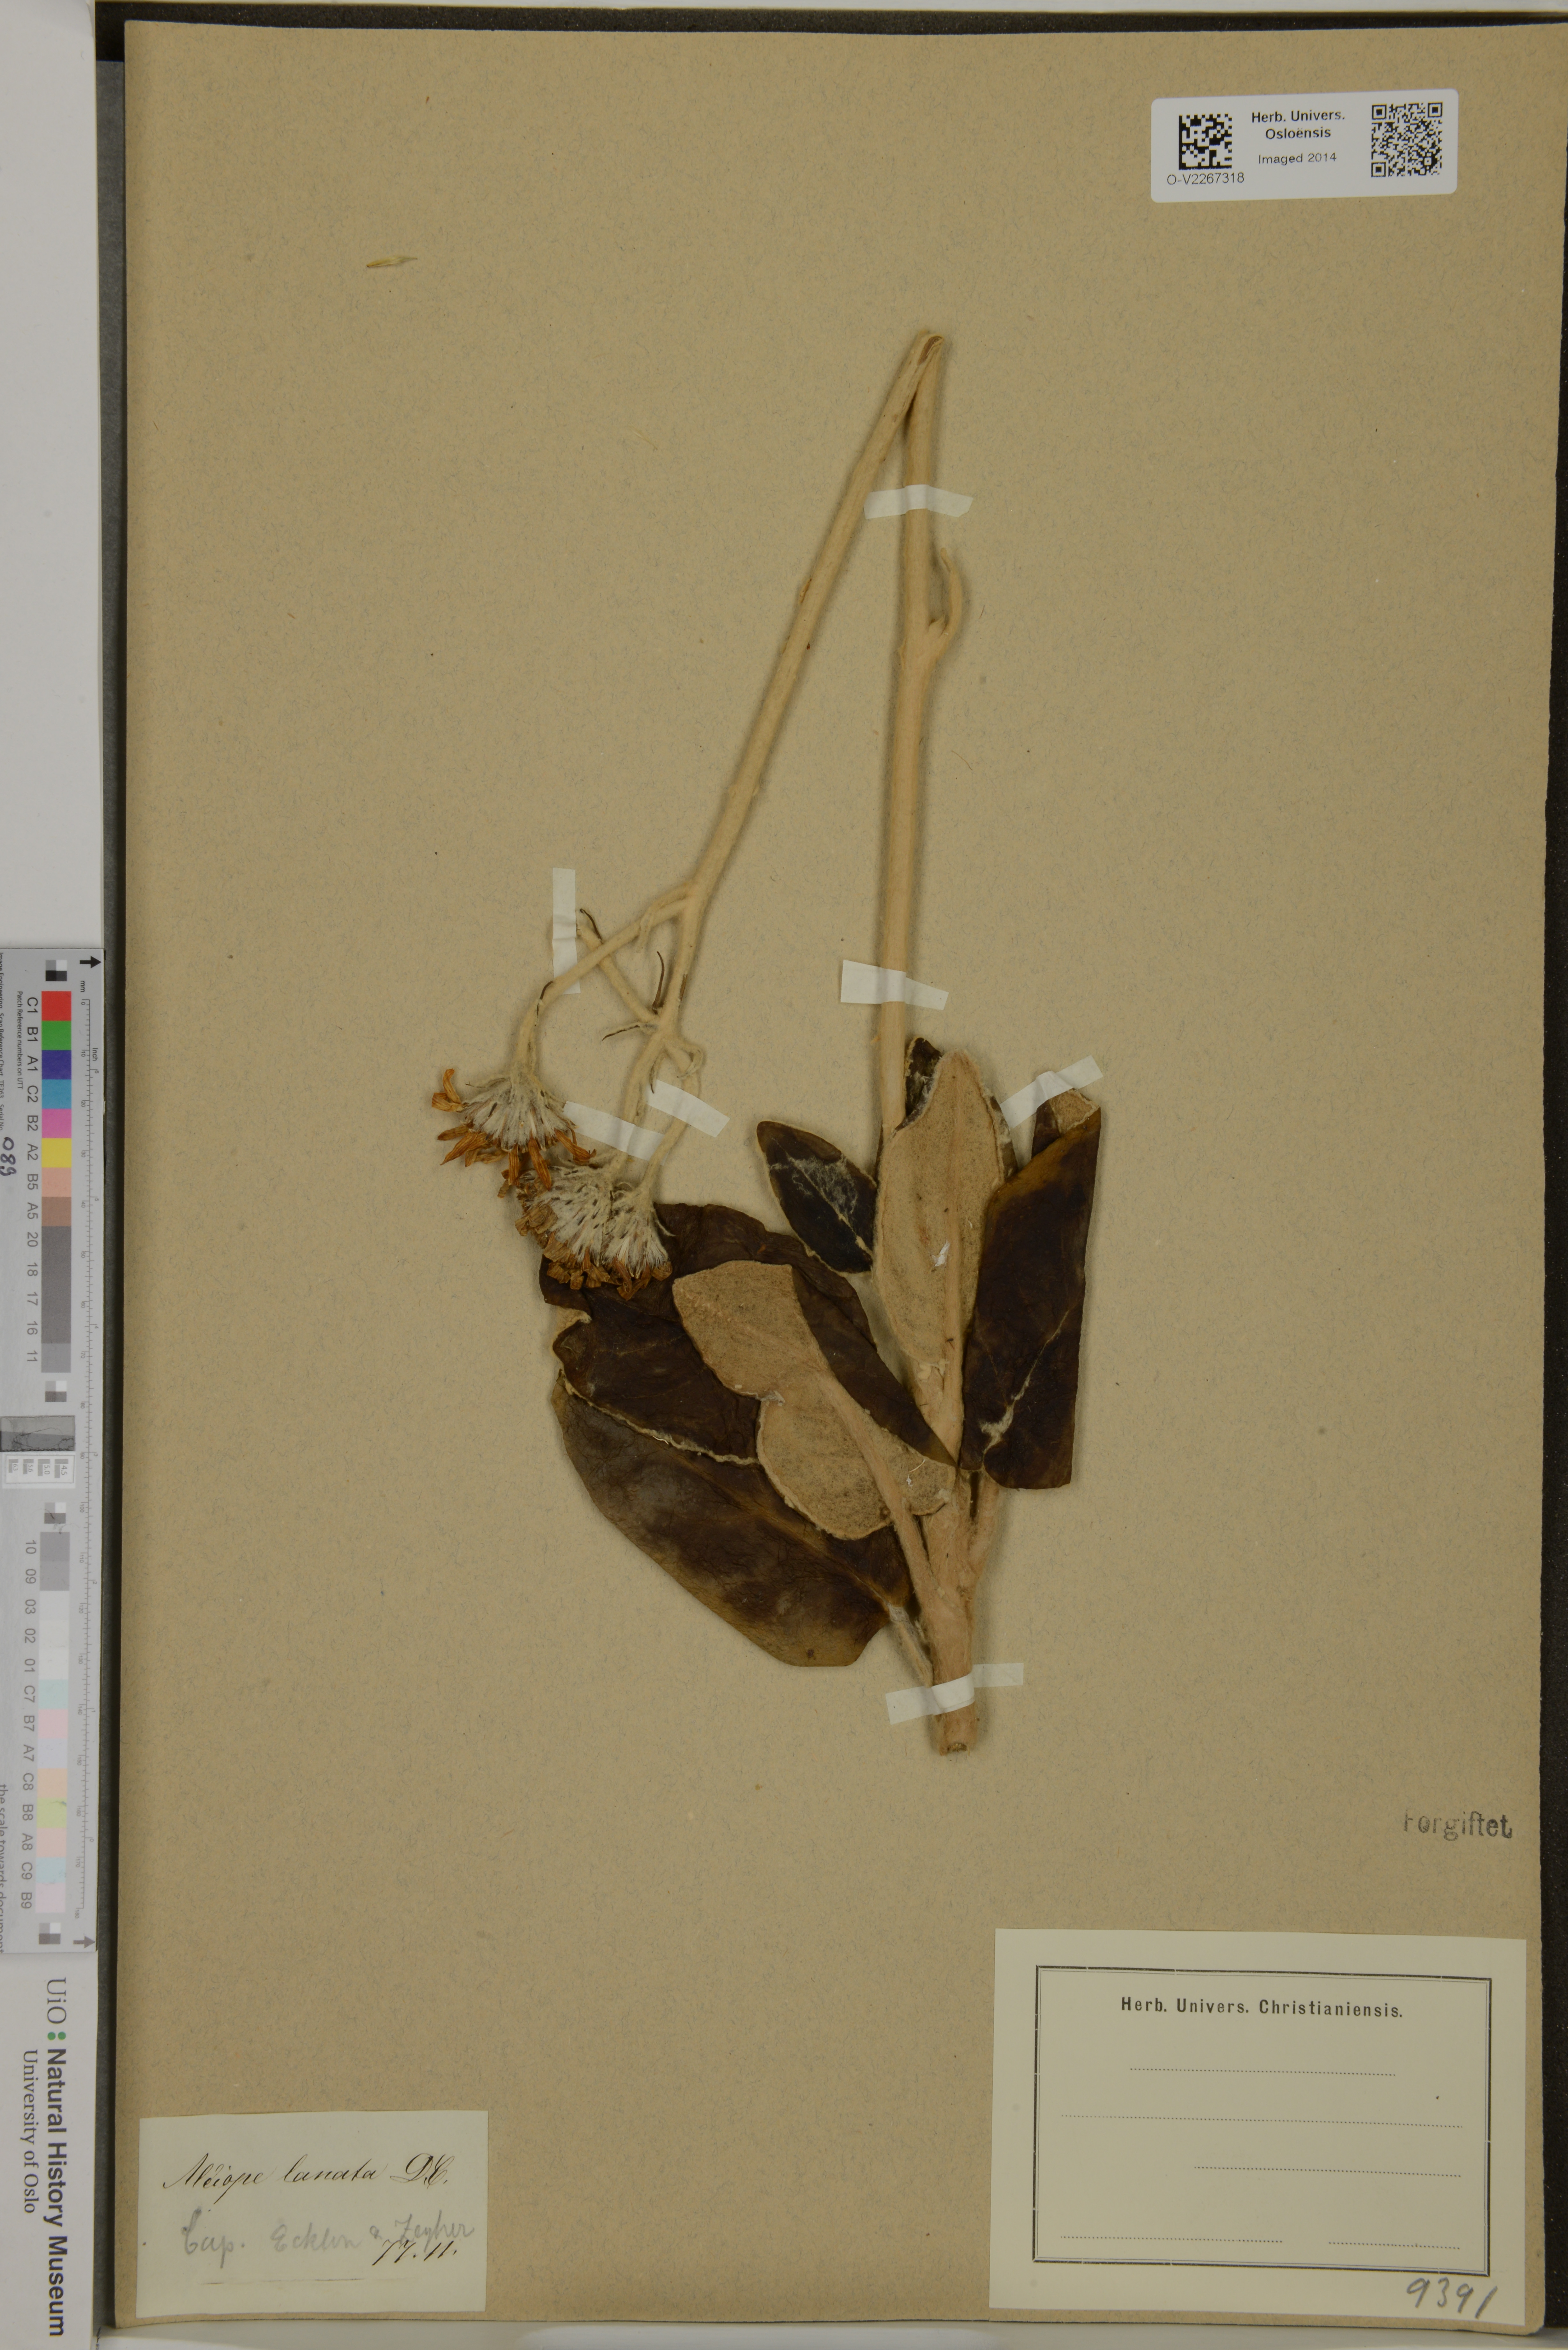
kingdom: Plantae
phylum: Tracheophyta
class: Magnoliopsida
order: Asterales
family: Asteraceae
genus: Capelio
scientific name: Capelio tomentosa
